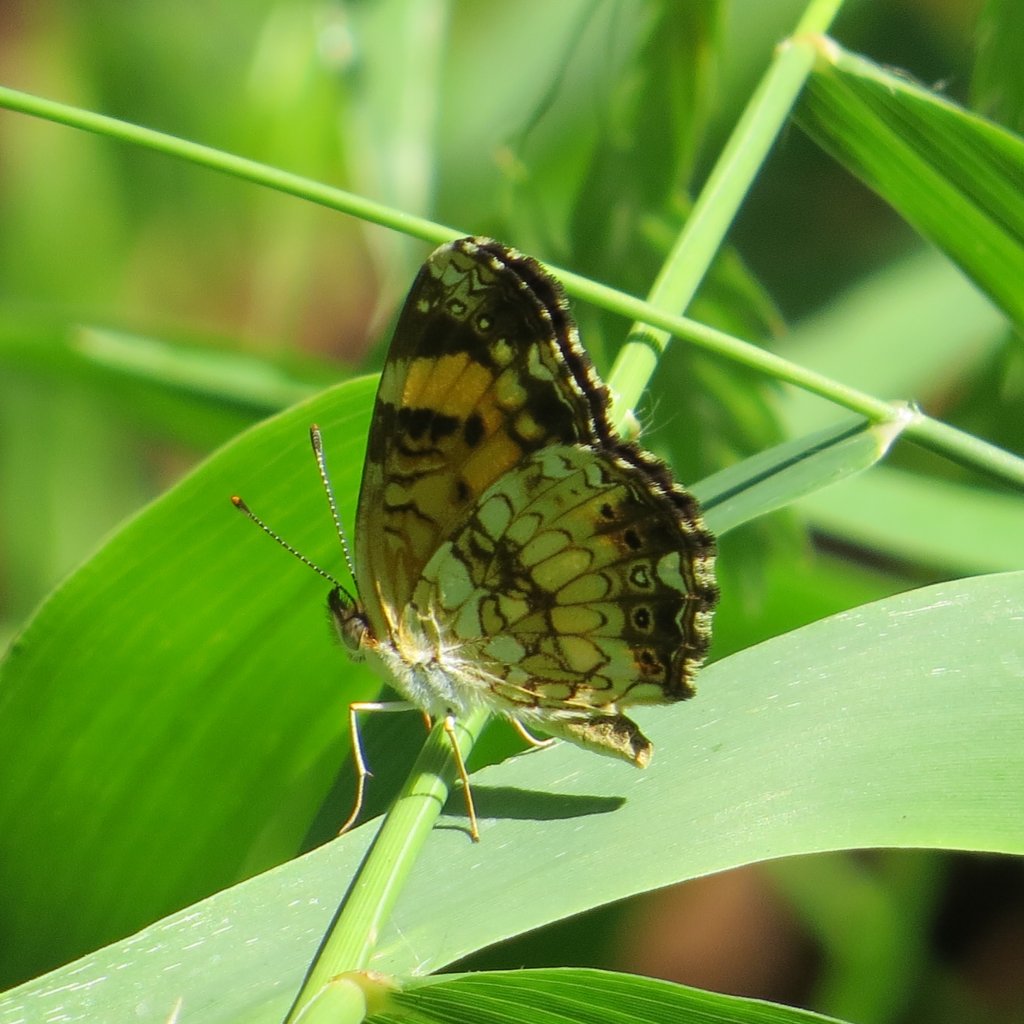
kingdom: Animalia
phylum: Arthropoda
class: Insecta
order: Lepidoptera
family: Nymphalidae
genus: Chlosyne
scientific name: Chlosyne nycteis
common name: Silvery Checkerspot
